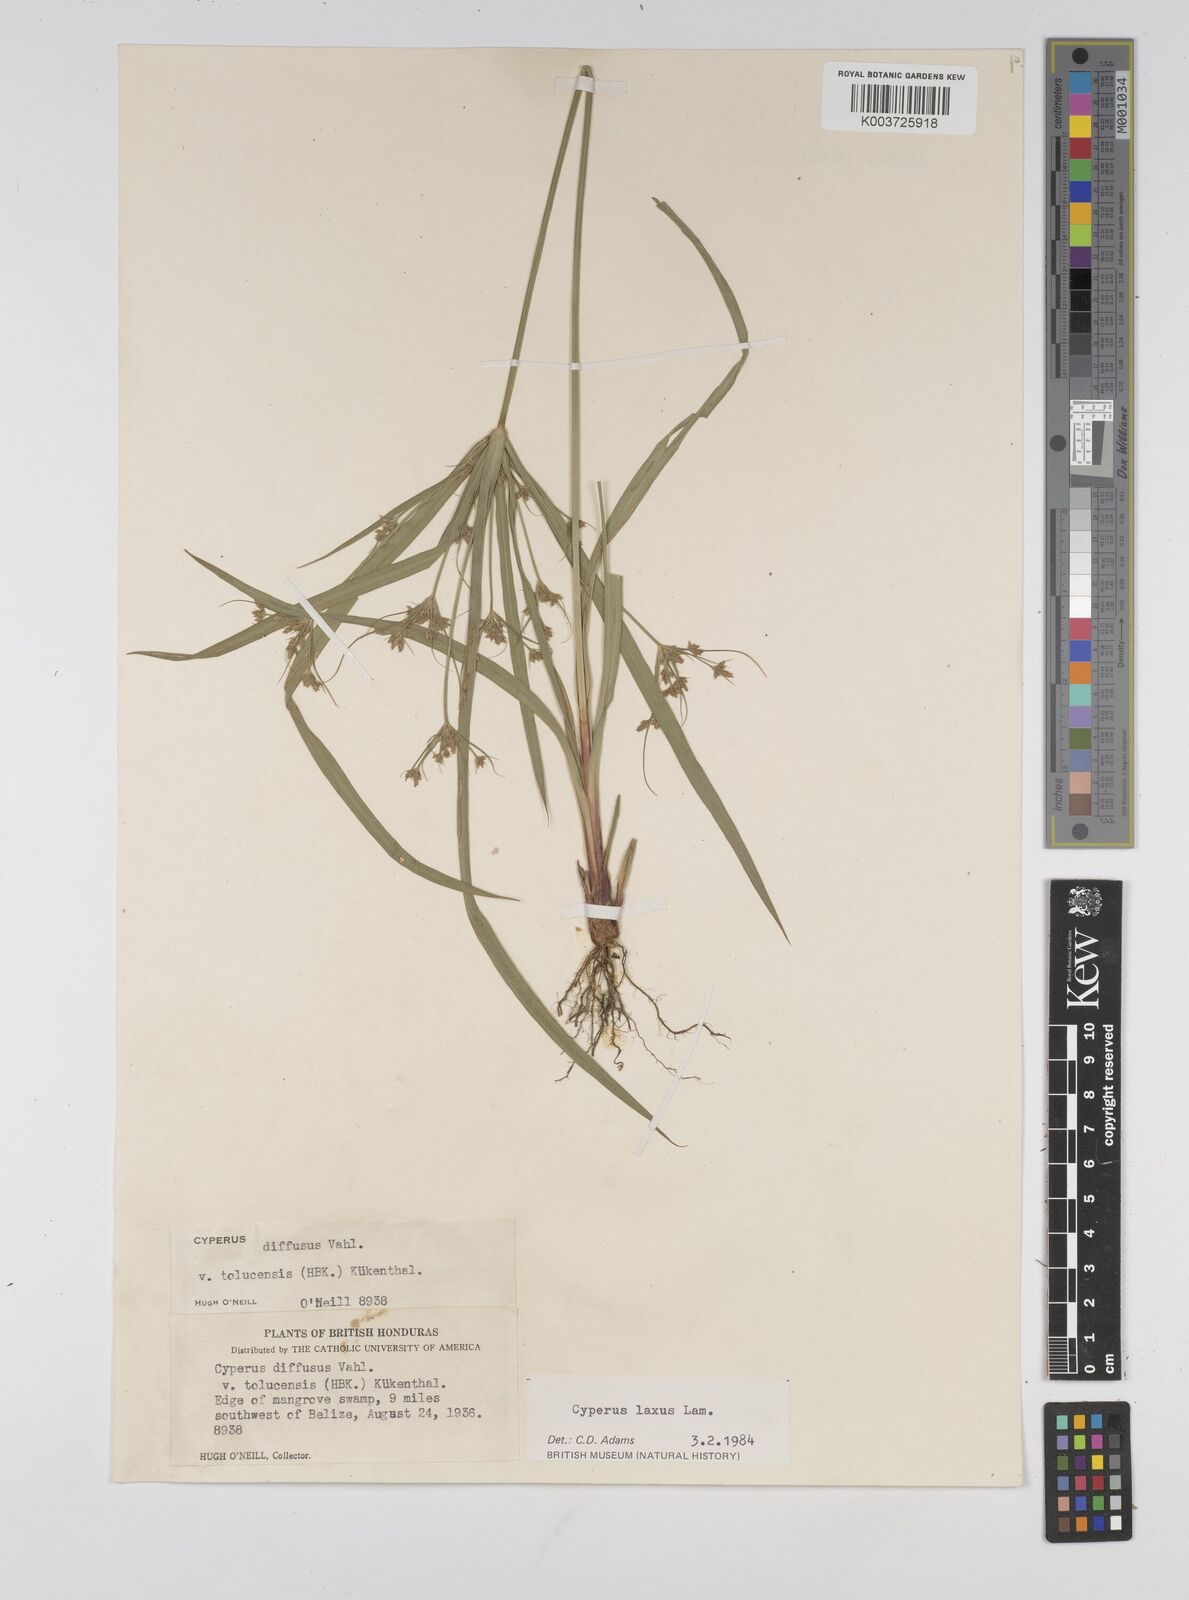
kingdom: Plantae
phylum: Tracheophyta
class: Liliopsida
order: Poales
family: Cyperaceae
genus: Cyperus
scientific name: Cyperus chalaranthus
